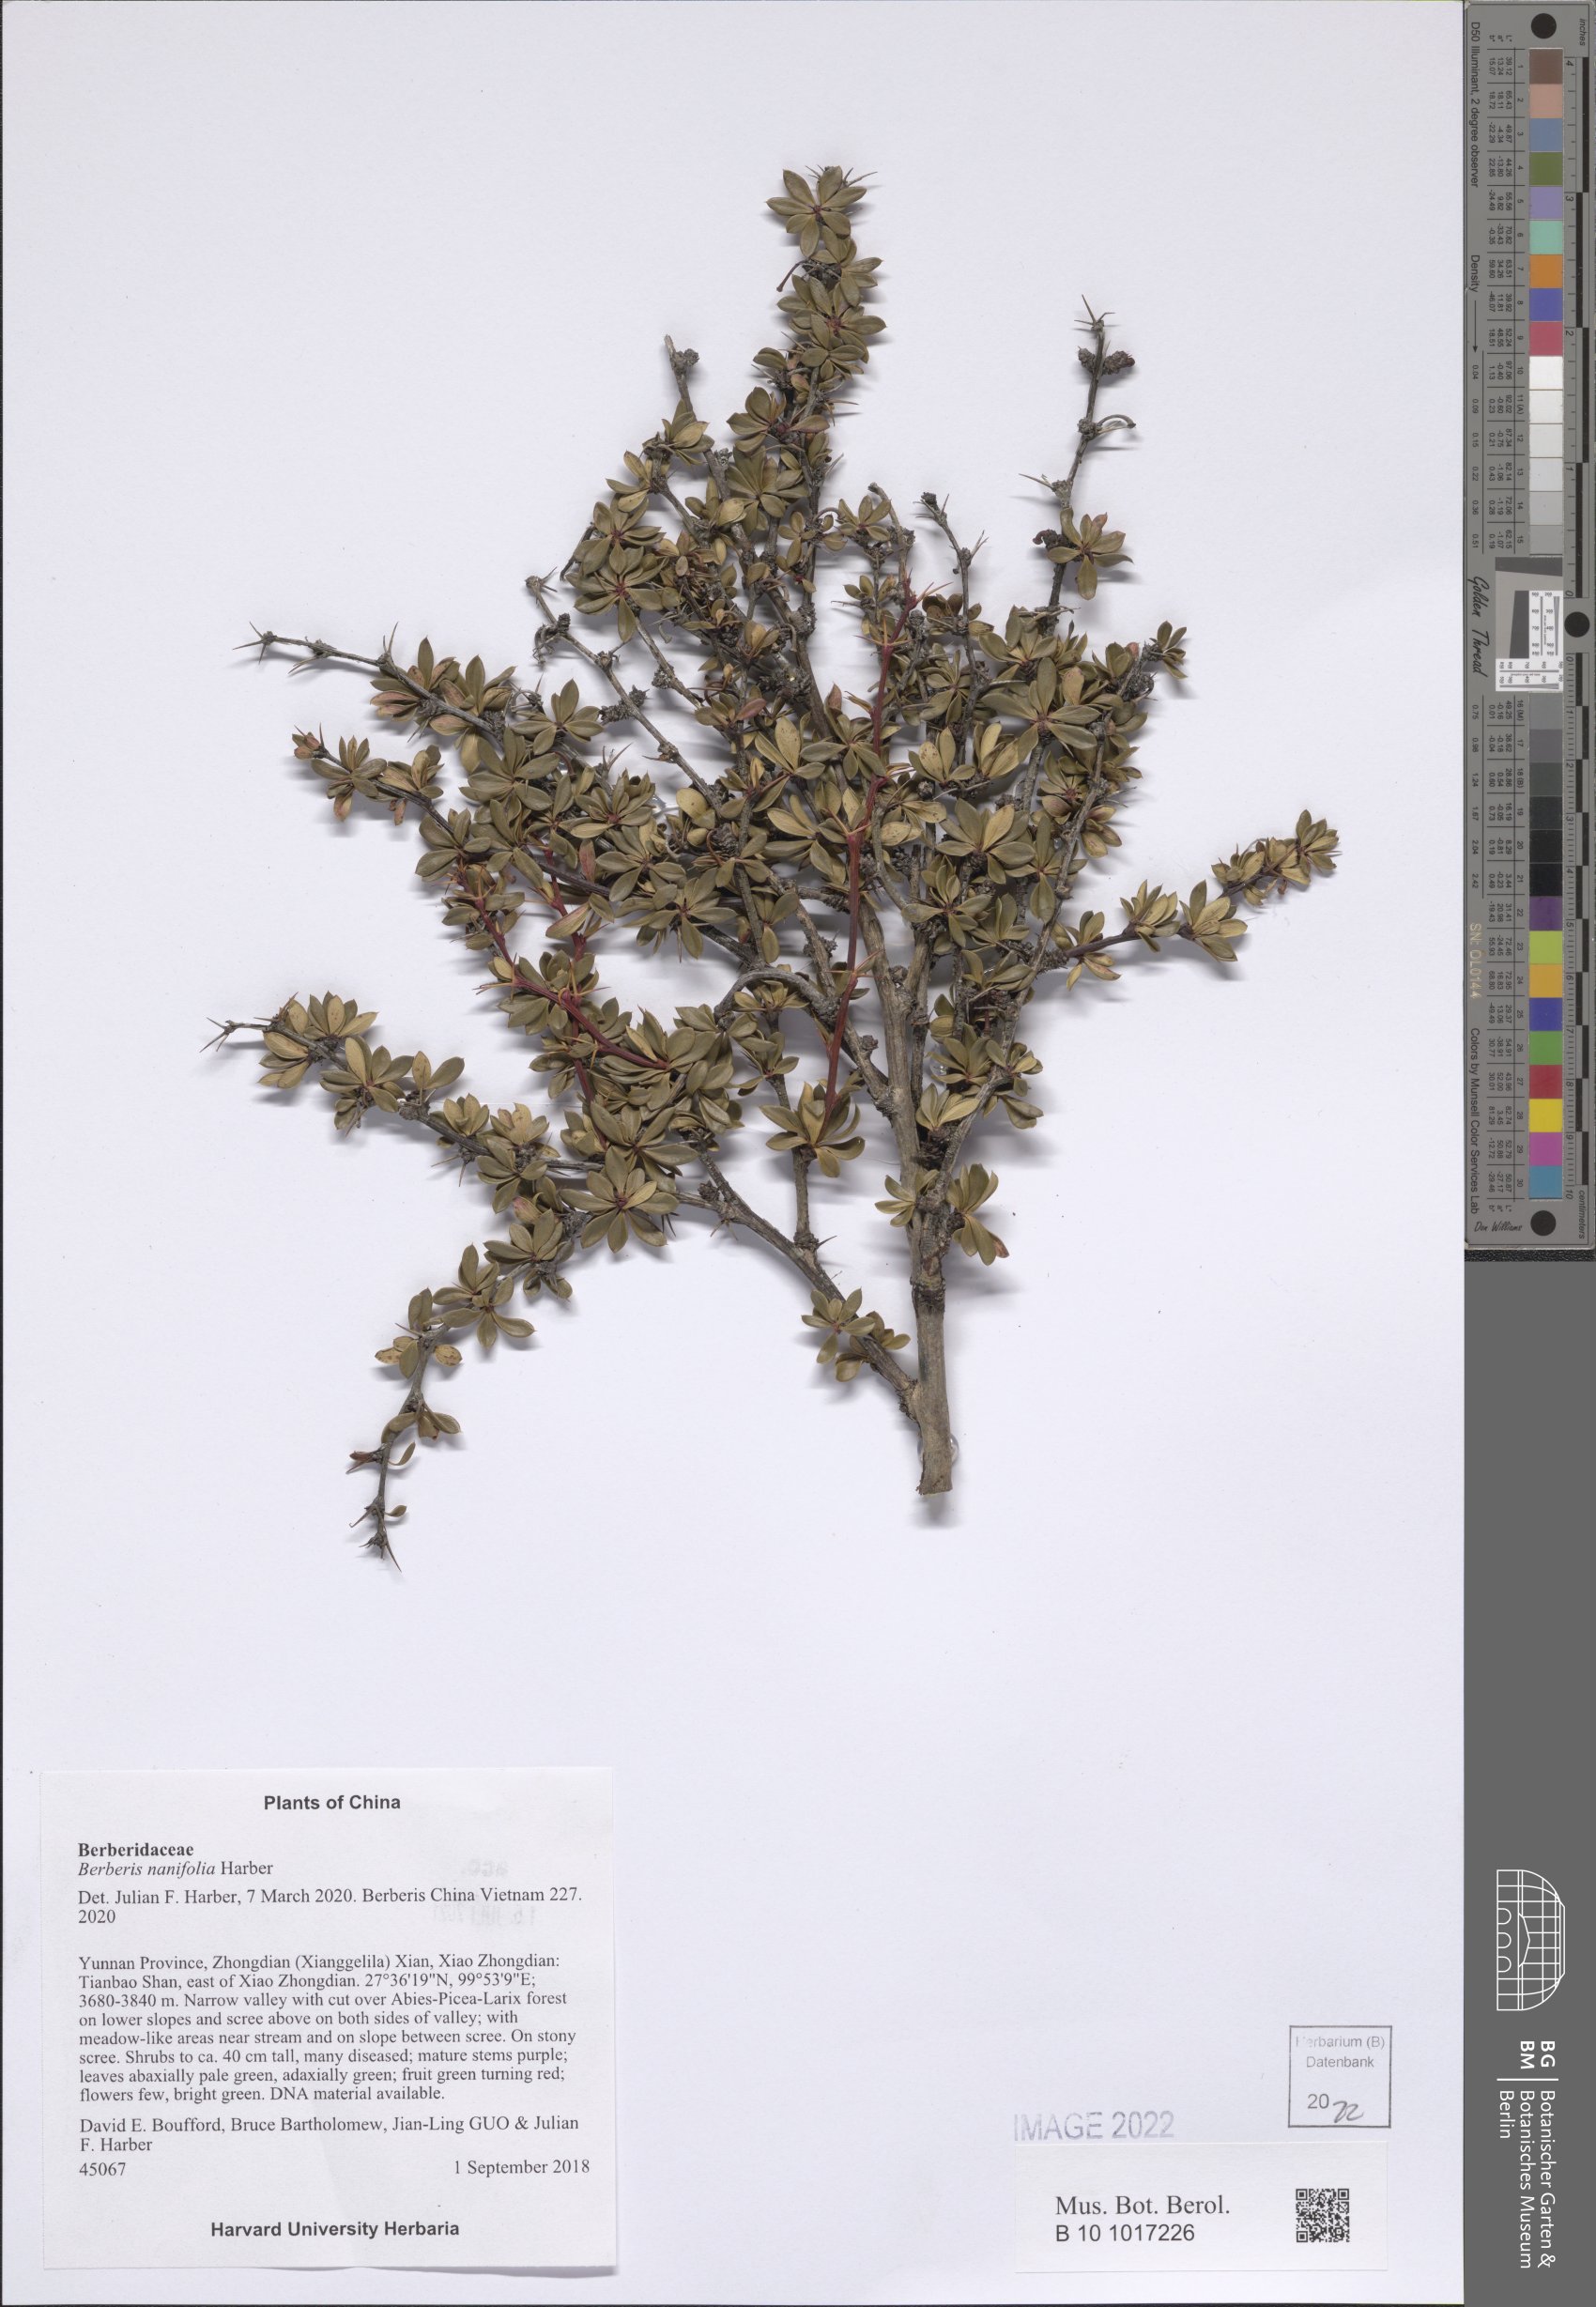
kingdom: Plantae
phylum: Tracheophyta
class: Magnoliopsida
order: Ranunculales
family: Berberidaceae
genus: Berberis
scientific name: Berberis nanifolia
